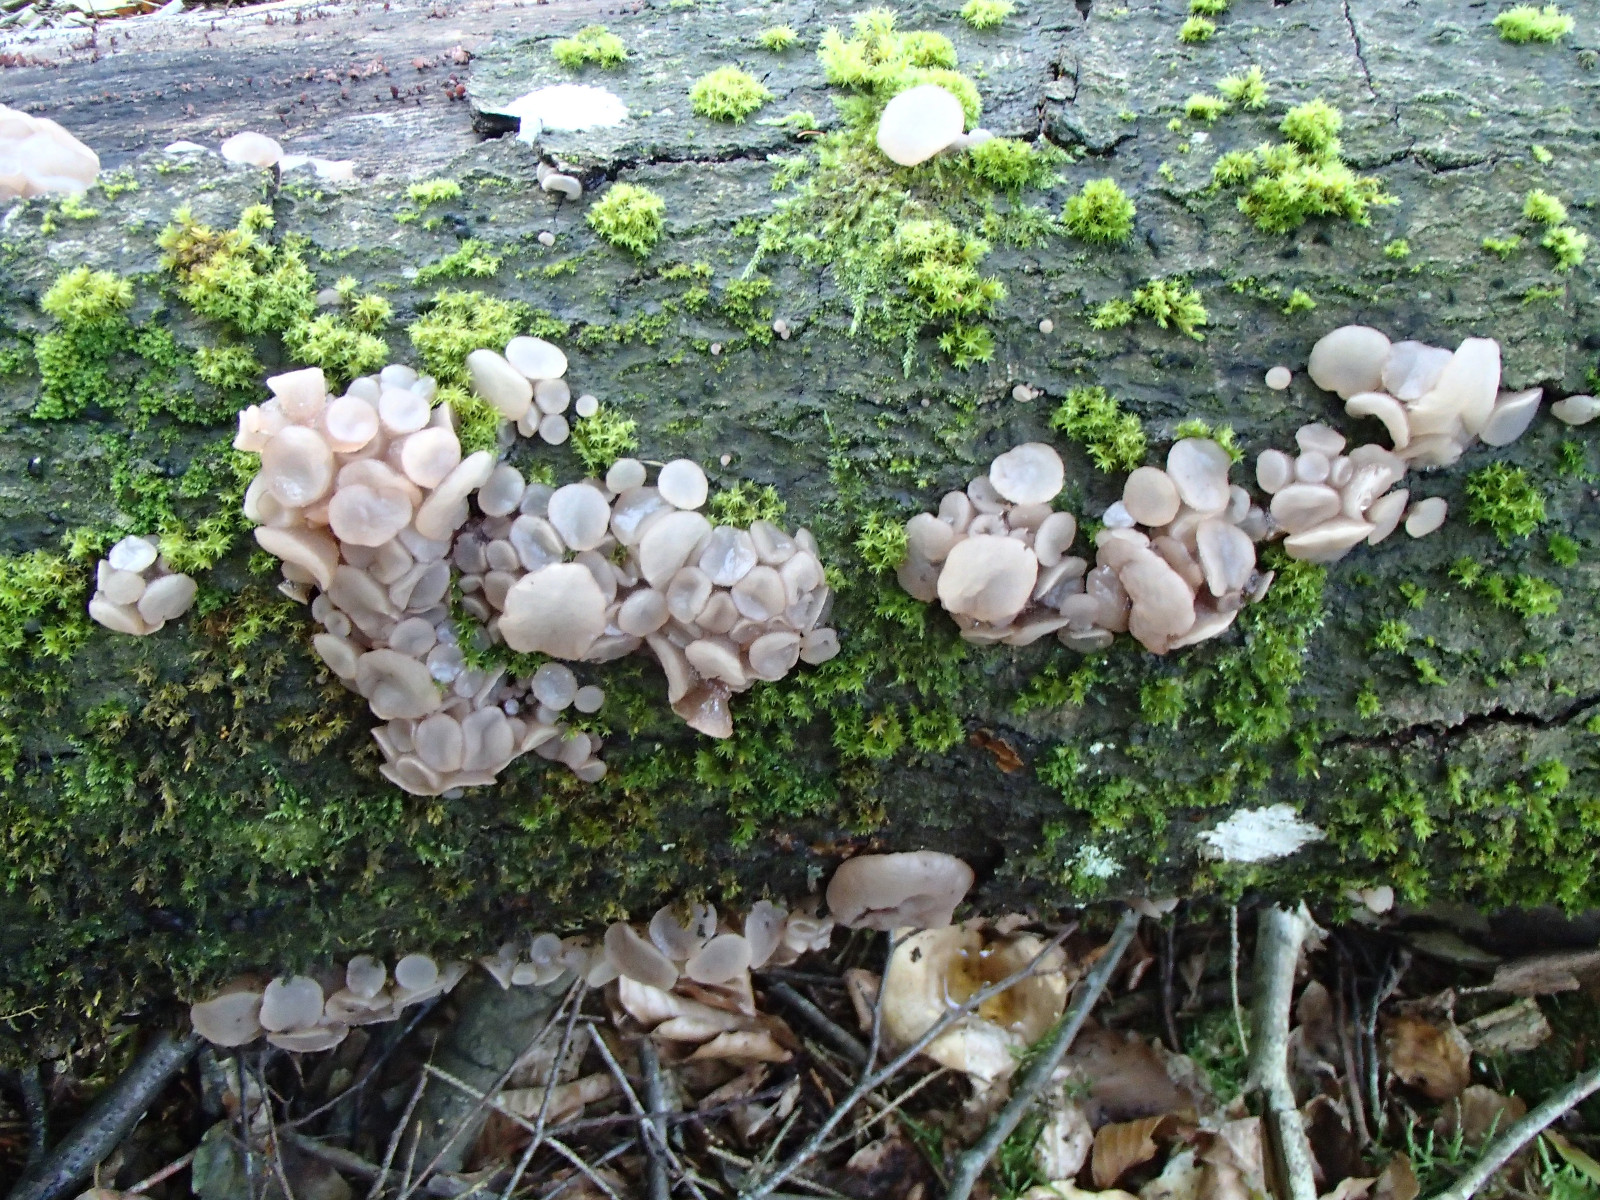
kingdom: Fungi
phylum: Ascomycota
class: Leotiomycetes
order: Helotiales
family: Gelatinodiscaceae
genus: Neobulgaria
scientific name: Neobulgaria pura
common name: bleg bævreskive
